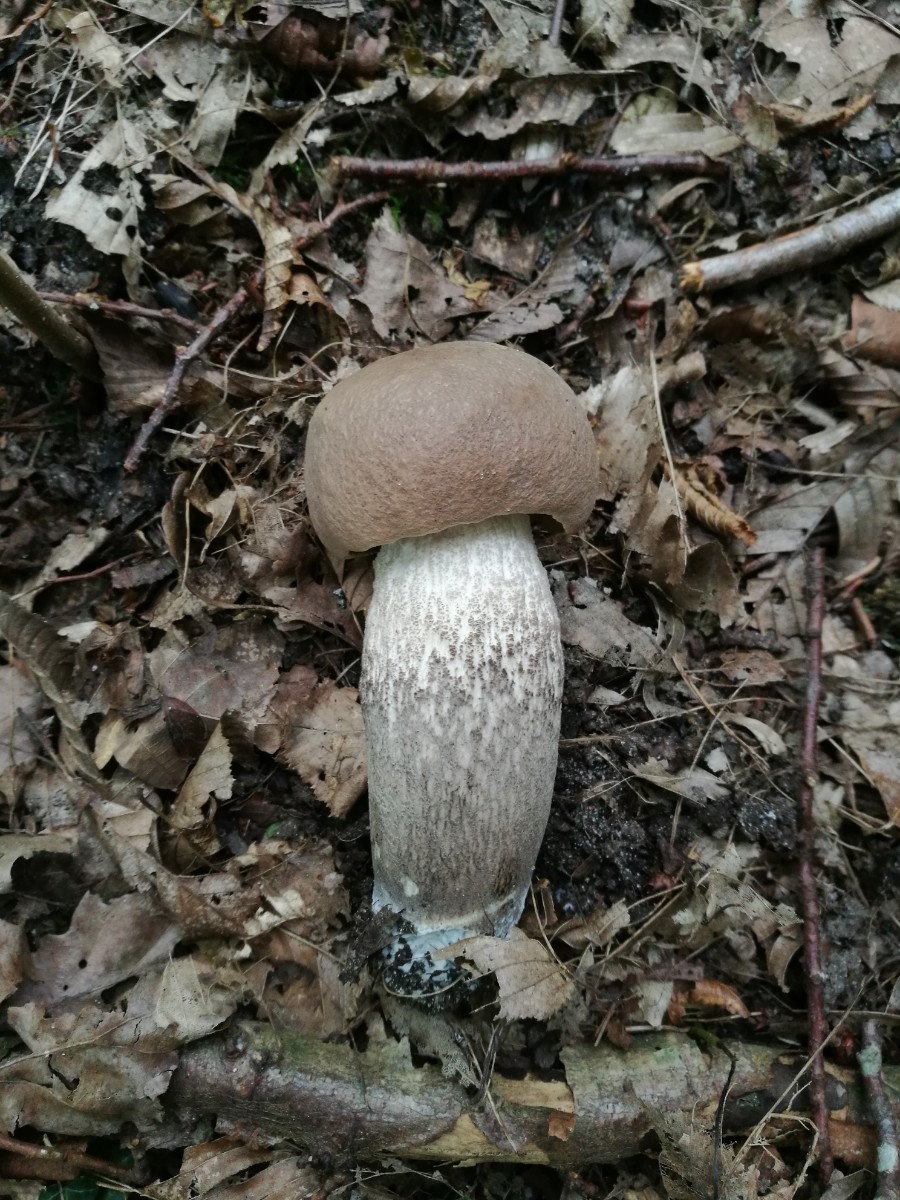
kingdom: Fungi
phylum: Basidiomycota
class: Agaricomycetes
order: Boletales
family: Boletaceae
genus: Leccinum
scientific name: Leccinum duriusculum
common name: poppel-skælrørhat
